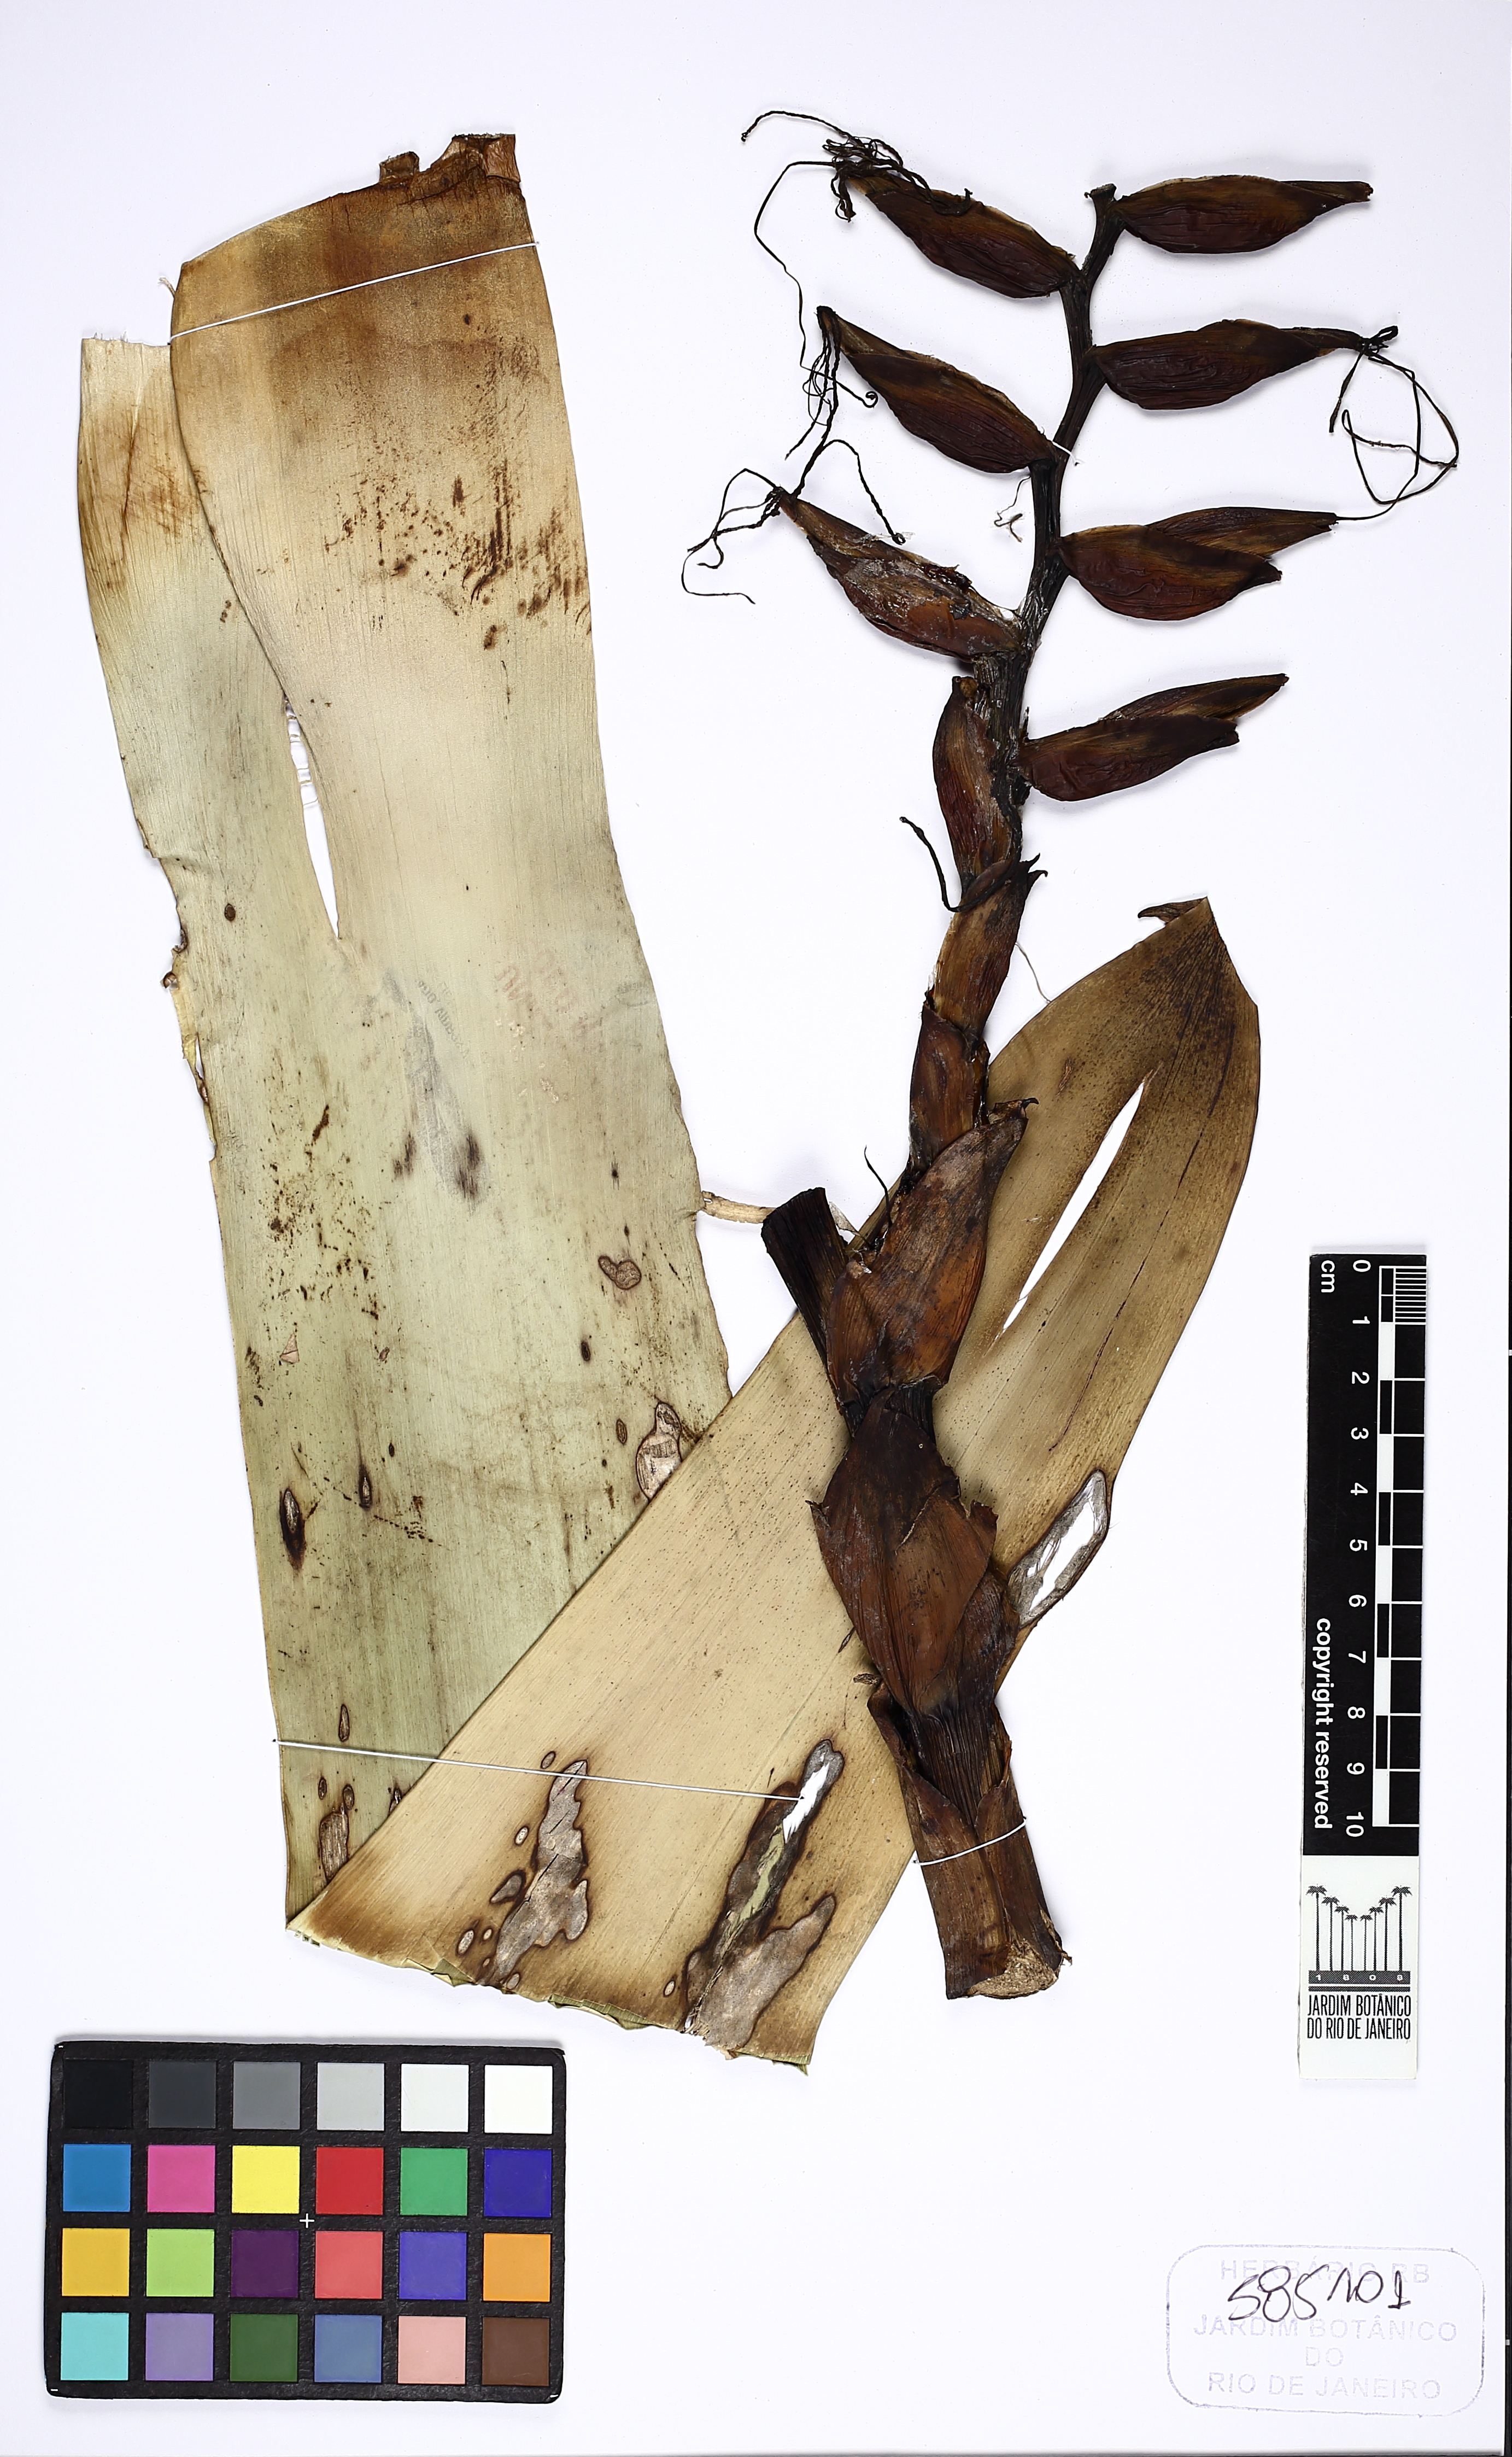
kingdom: Plantae
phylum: Tracheophyta
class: Liliopsida
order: Poales
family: Bromeliaceae
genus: Alcantarea
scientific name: Alcantarea trepida
